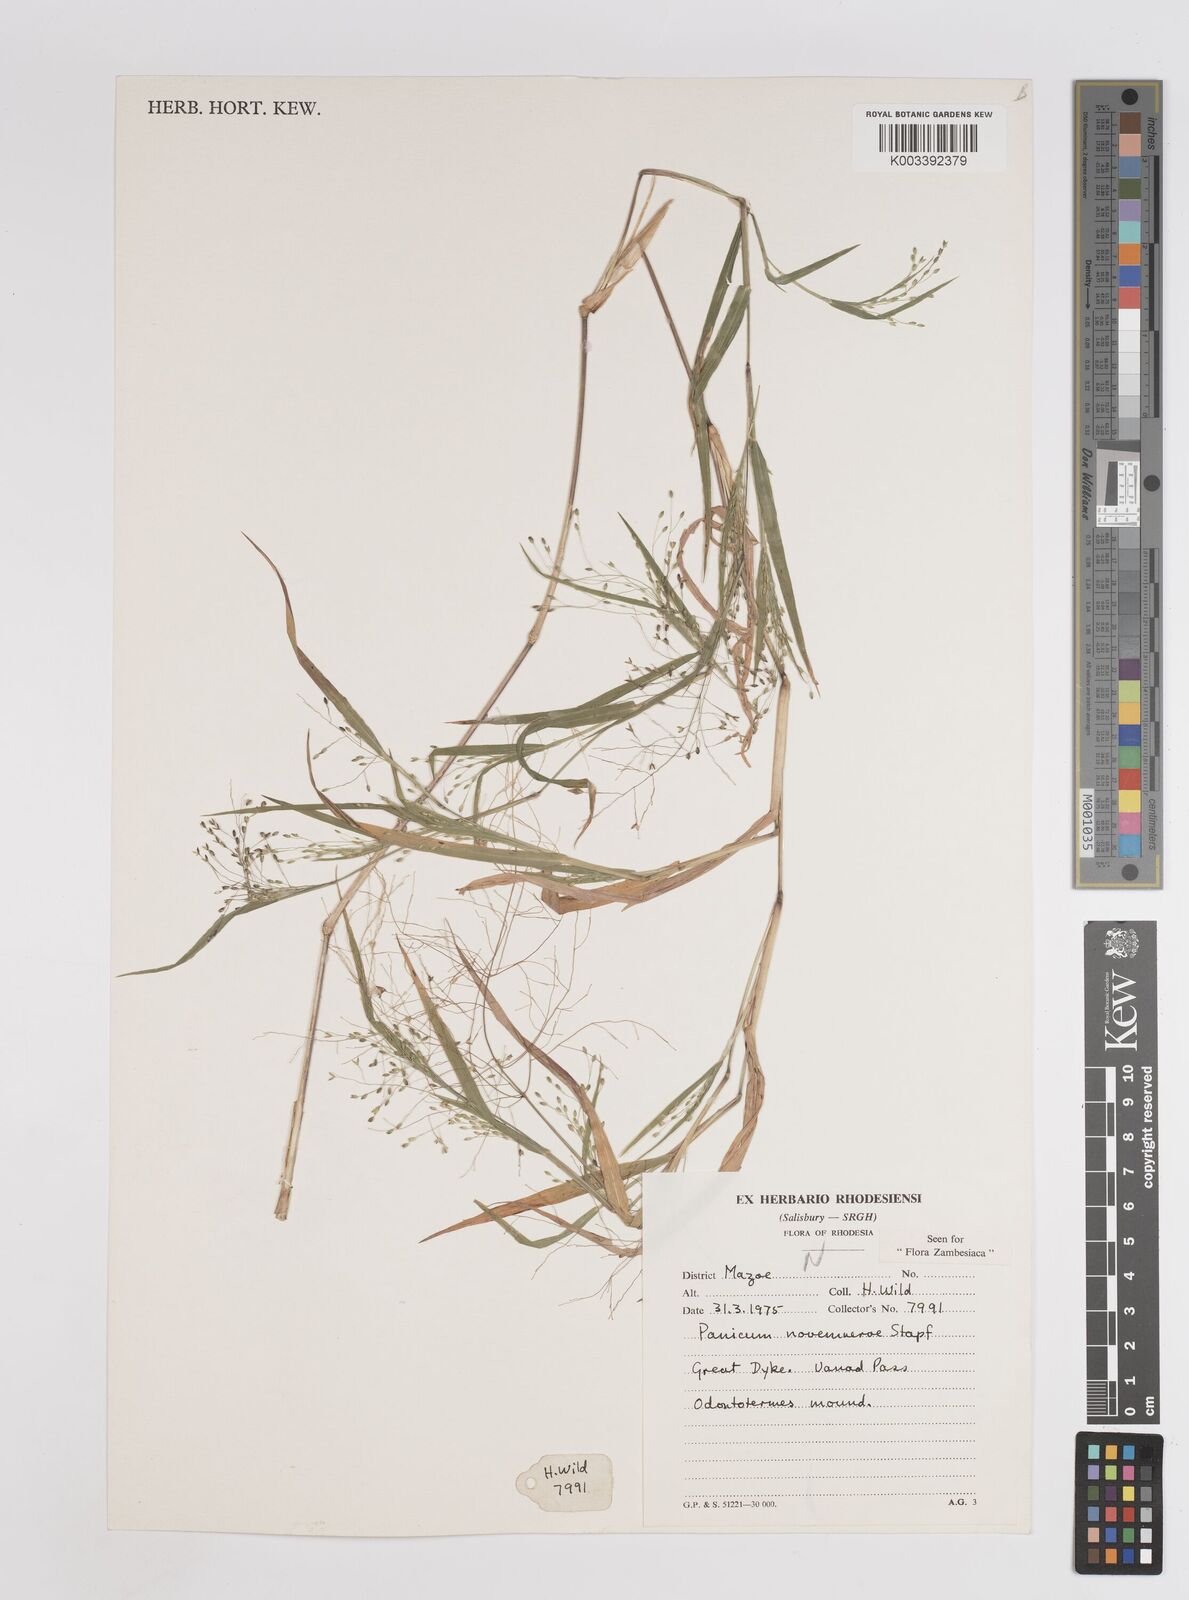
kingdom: Plantae
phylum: Tracheophyta
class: Liliopsida
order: Poales
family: Poaceae
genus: Panicum
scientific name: Panicum novemnerve
